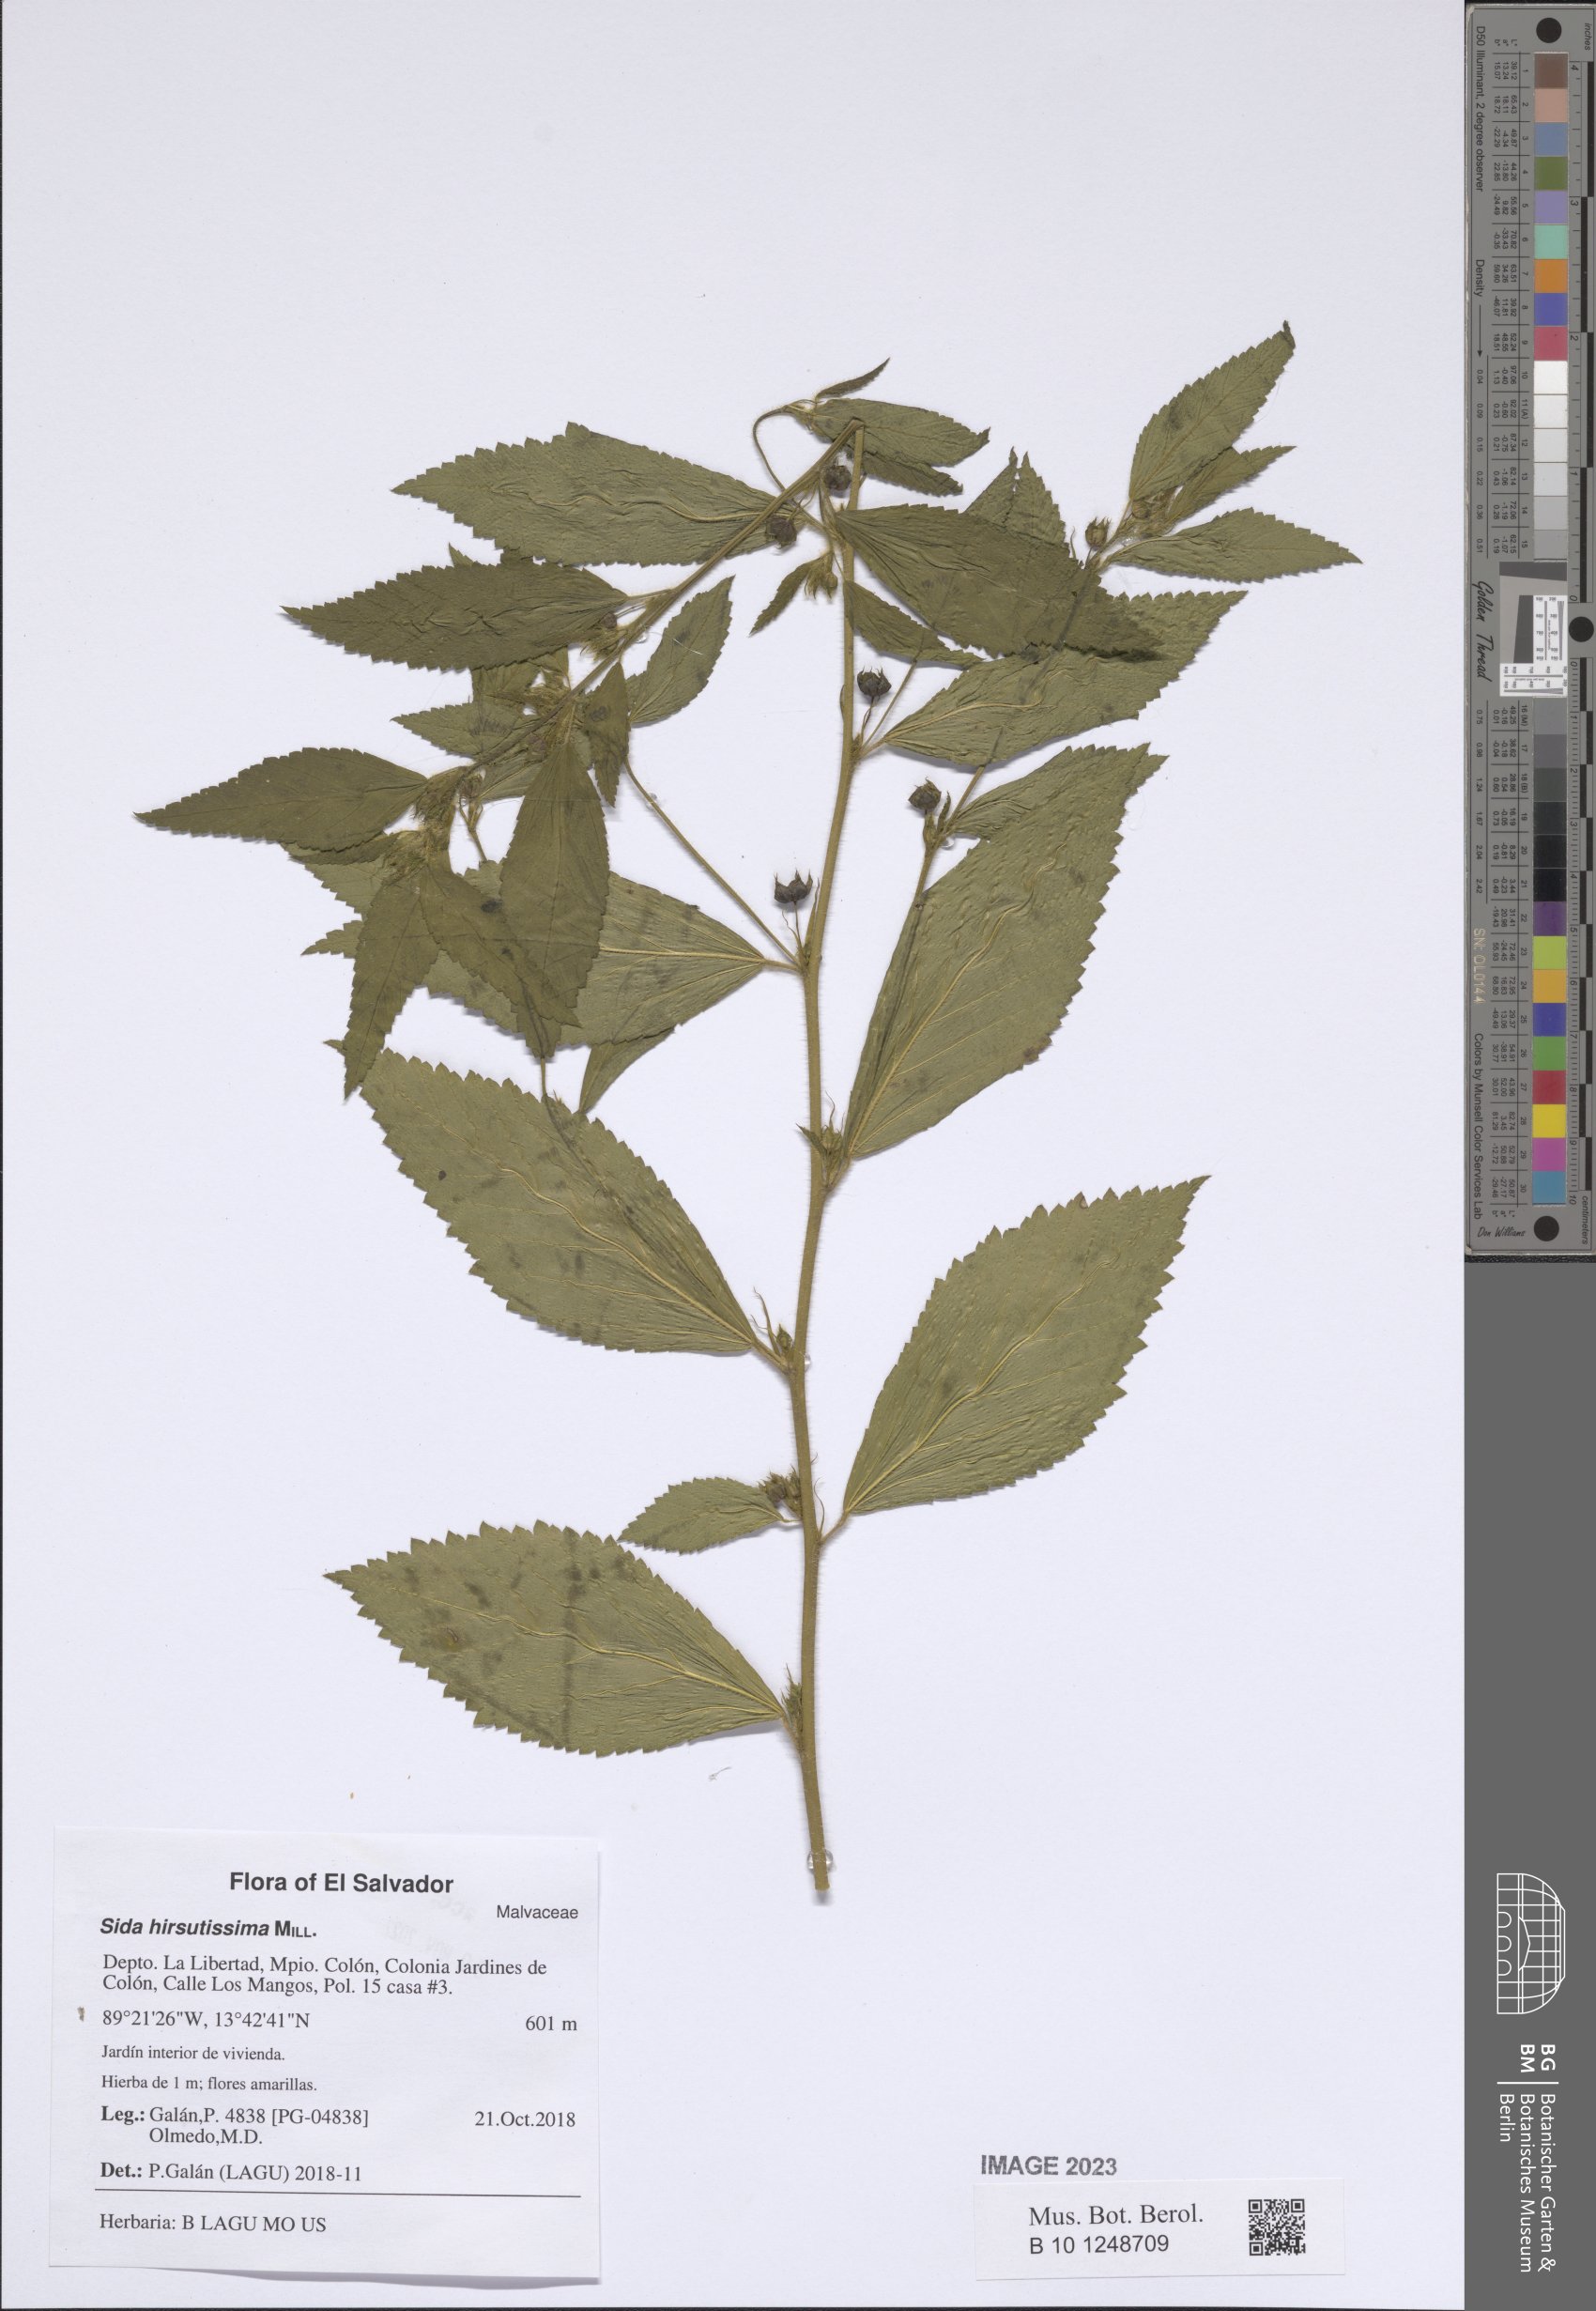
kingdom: Plantae
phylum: Tracheophyta
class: Magnoliopsida
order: Malvales
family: Malvaceae
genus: Sida
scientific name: Sida hirsutissima
